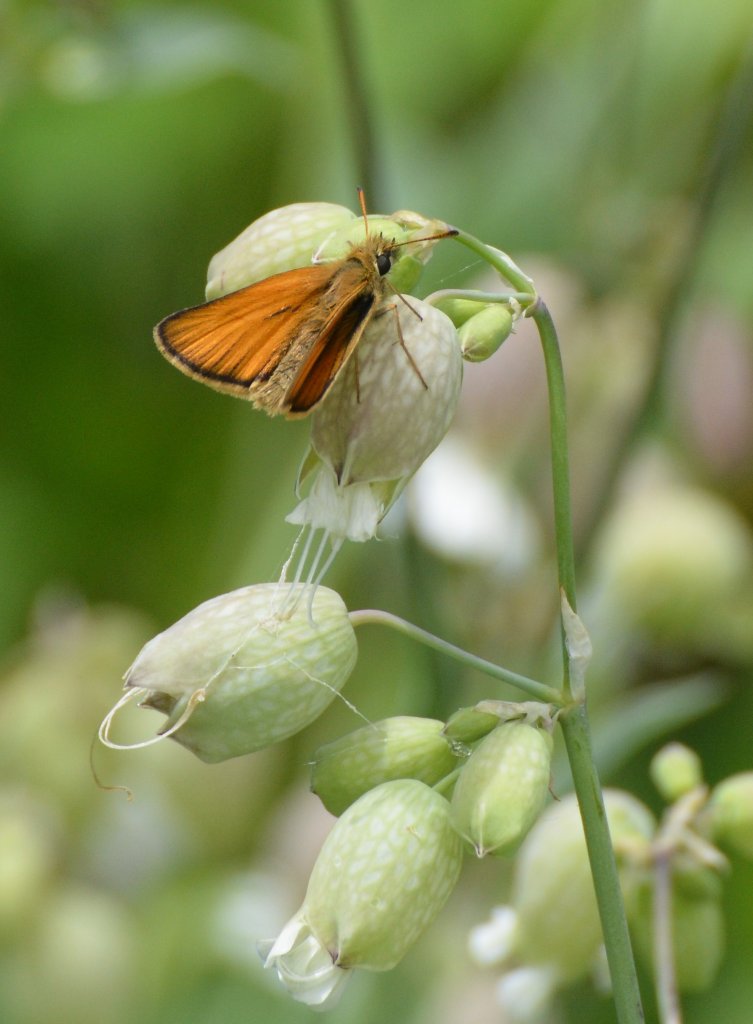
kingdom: Animalia
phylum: Arthropoda
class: Insecta
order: Lepidoptera
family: Hesperiidae
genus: Thymelicus
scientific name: Thymelicus lineola
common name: European Skipper
